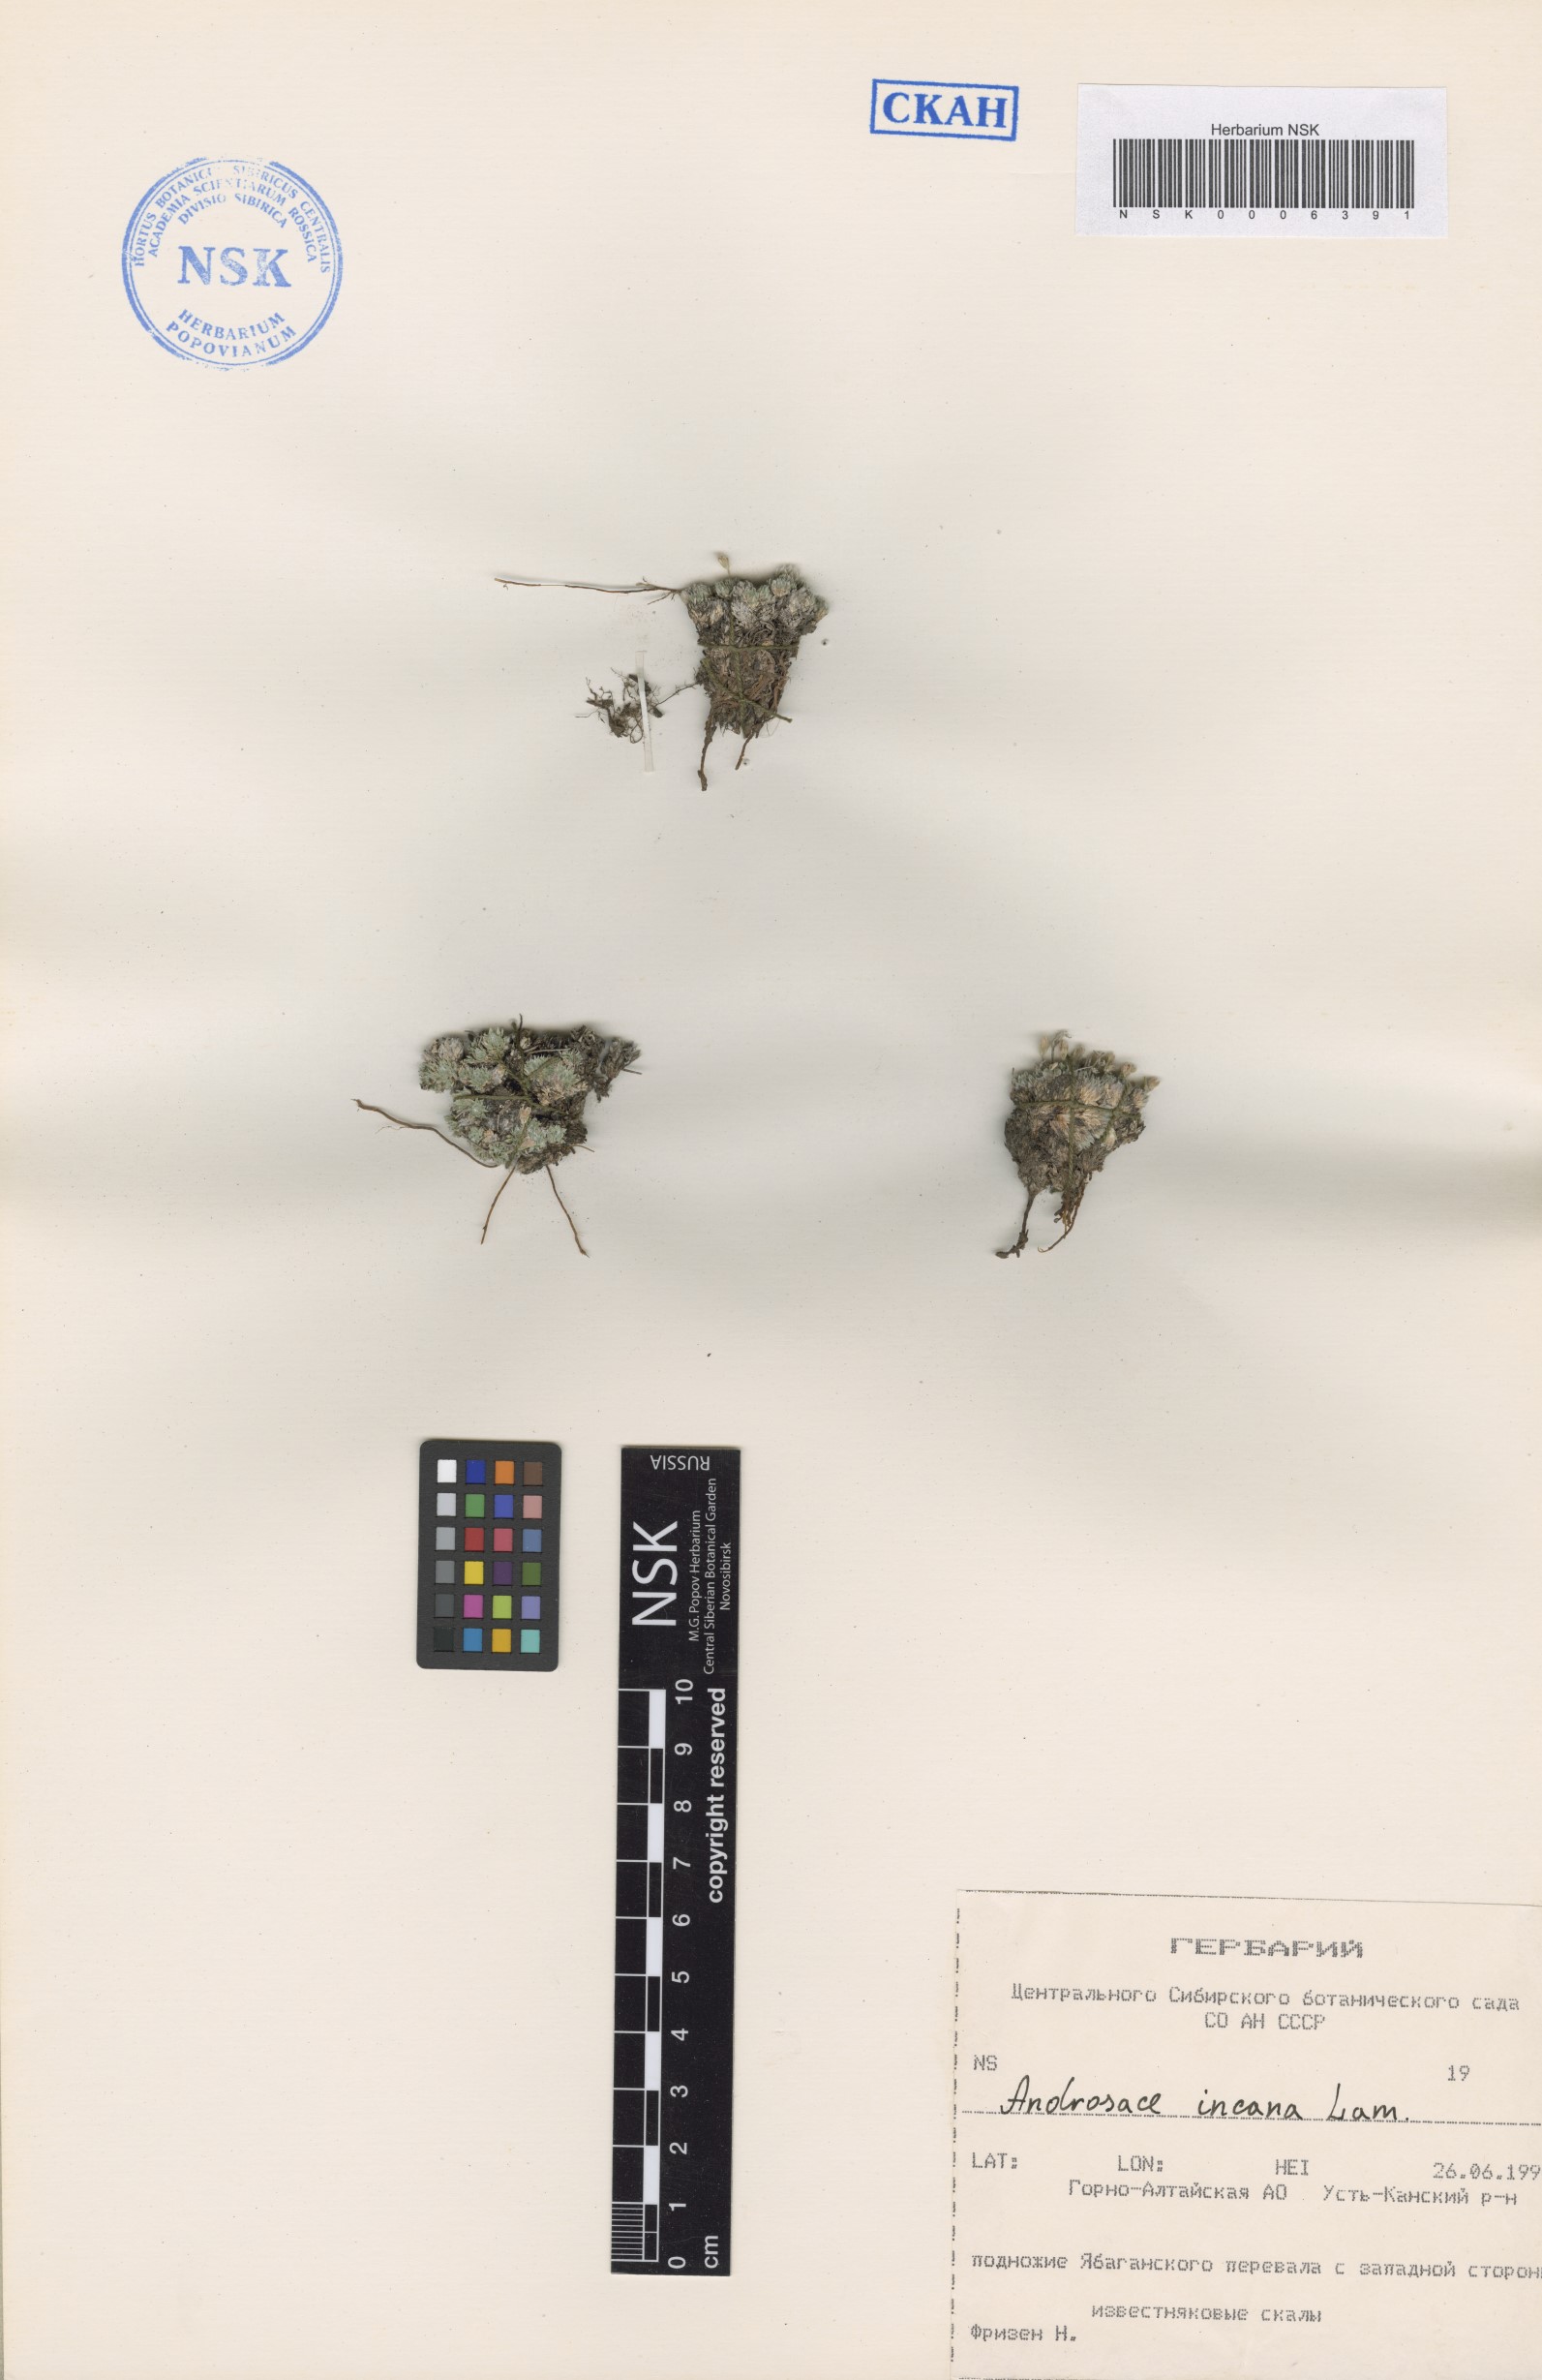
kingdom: Plantae
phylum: Tracheophyta
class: Magnoliopsida
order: Ericales
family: Primulaceae
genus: Androsace
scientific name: Androsace incana
